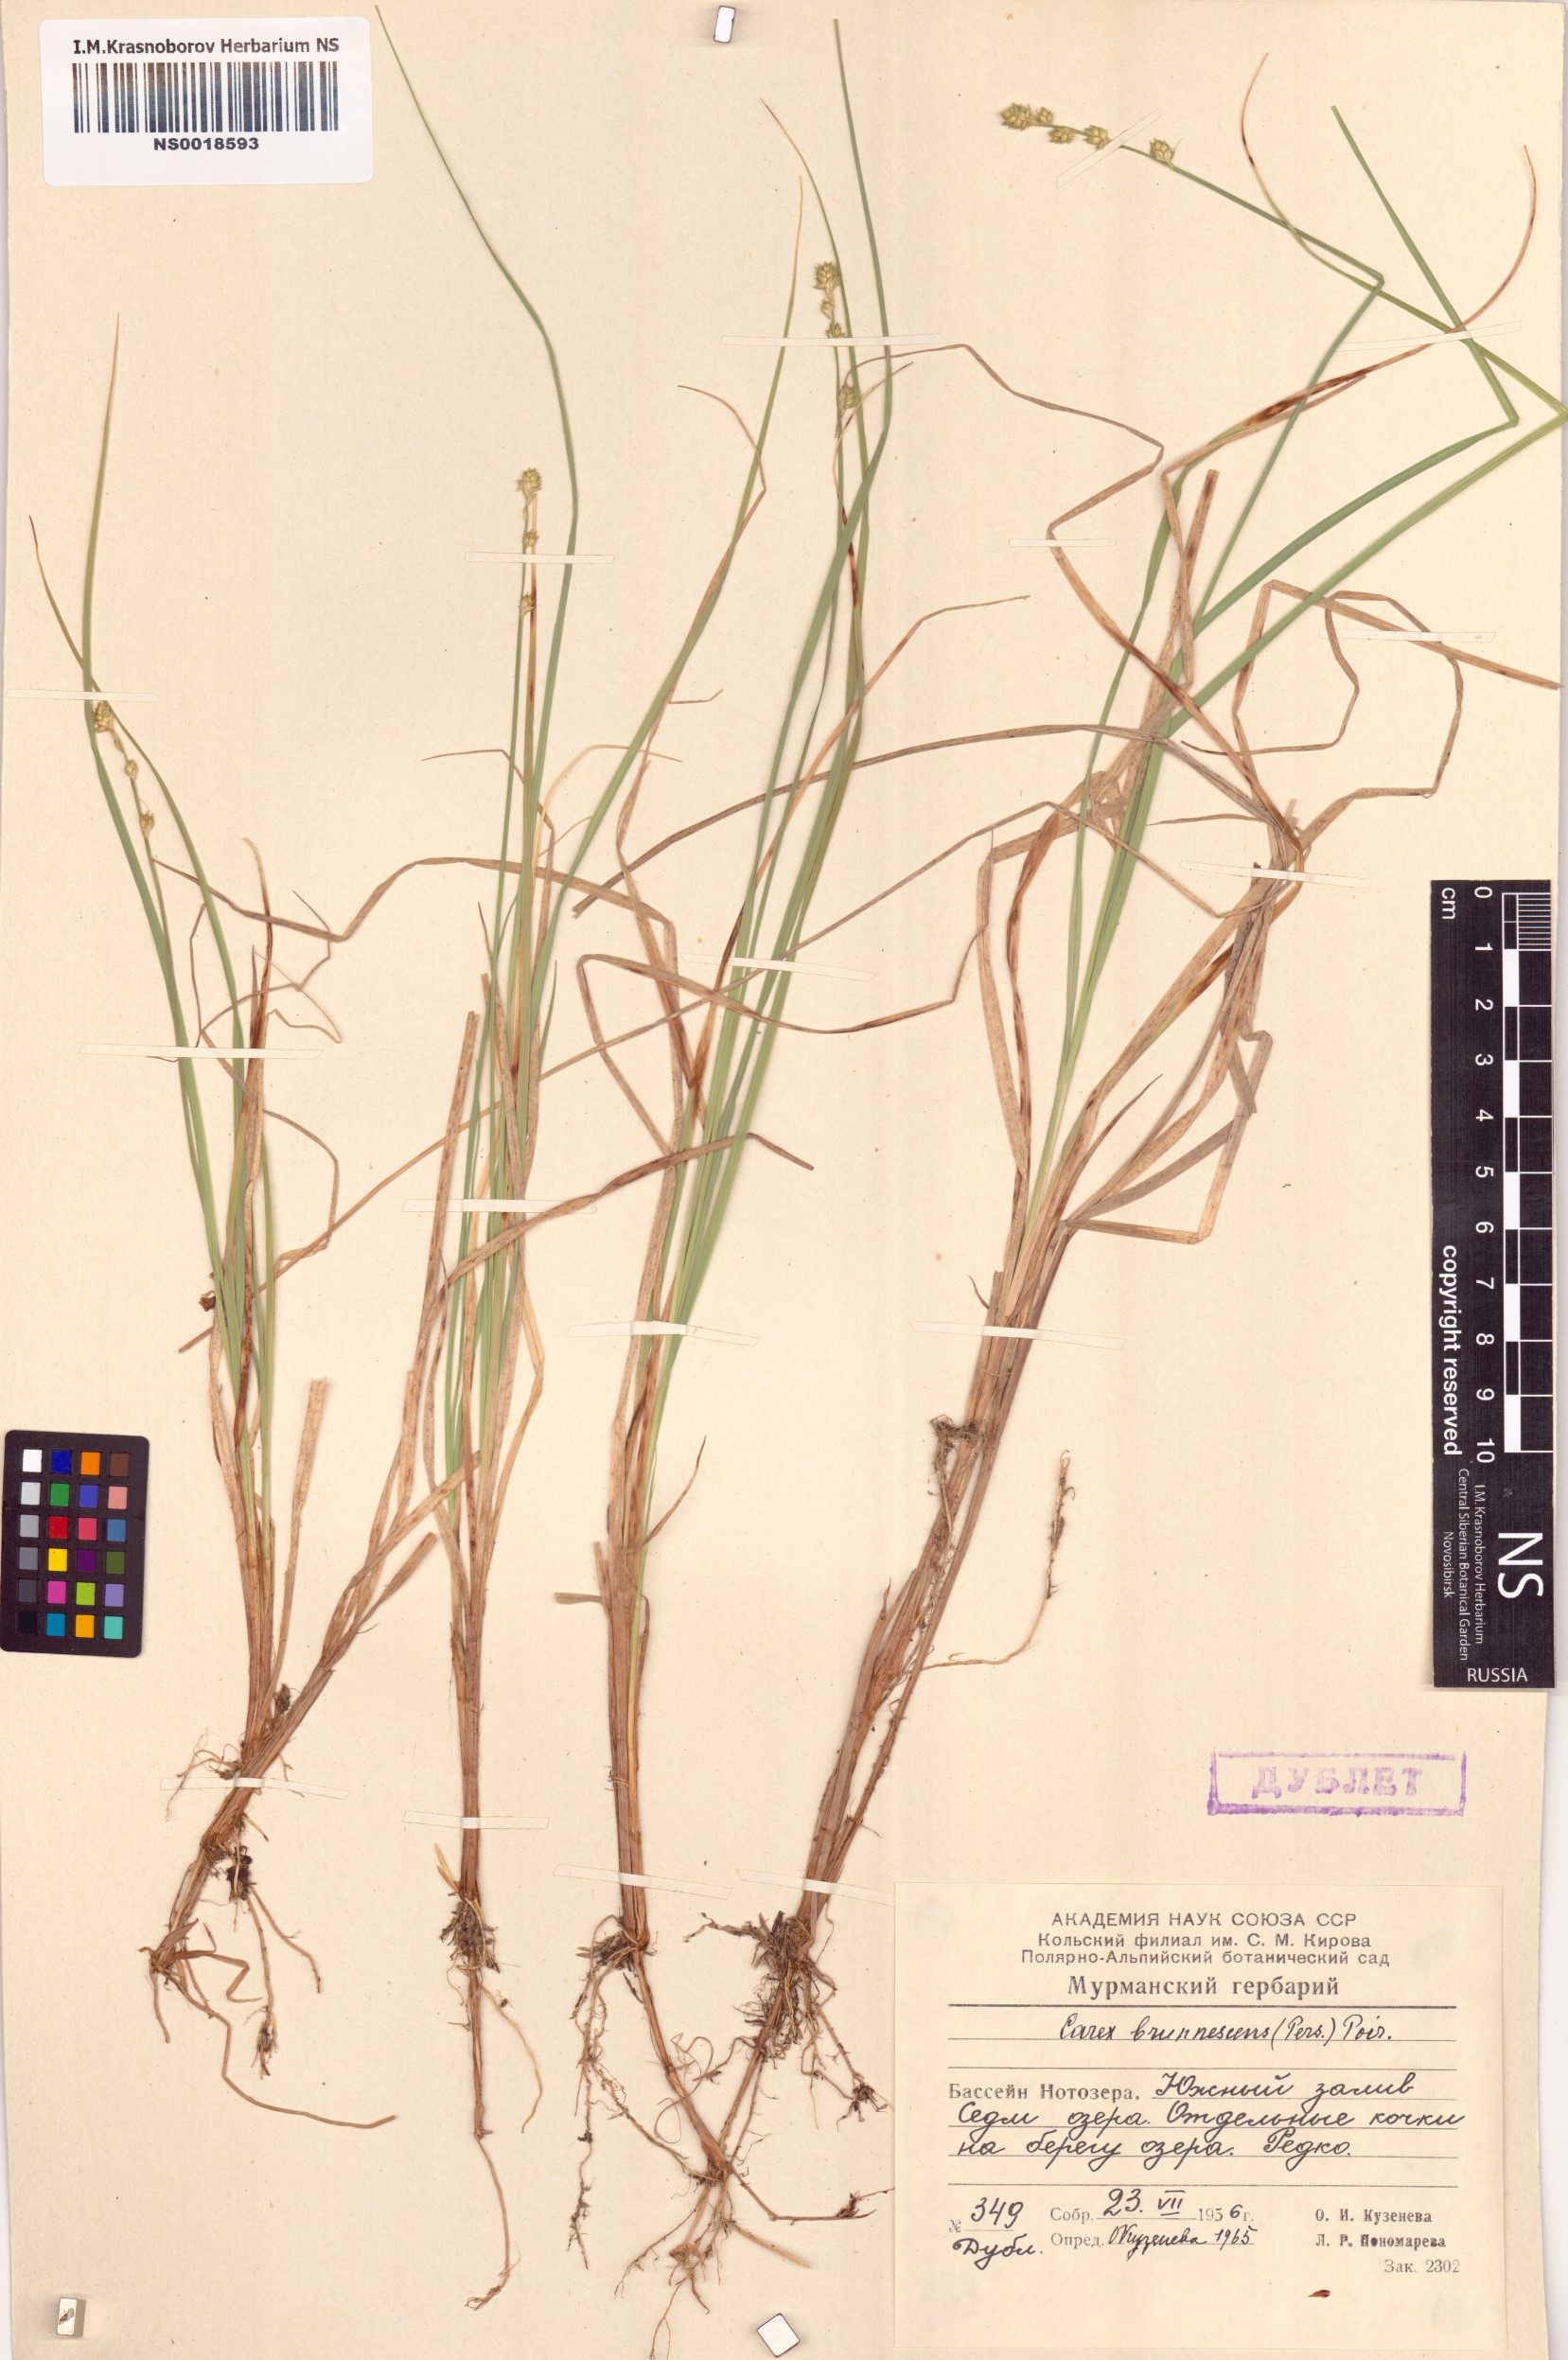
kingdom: Plantae
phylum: Tracheophyta
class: Liliopsida
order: Poales
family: Cyperaceae
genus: Carex
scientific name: Carex brunnescens
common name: Brown sedge
